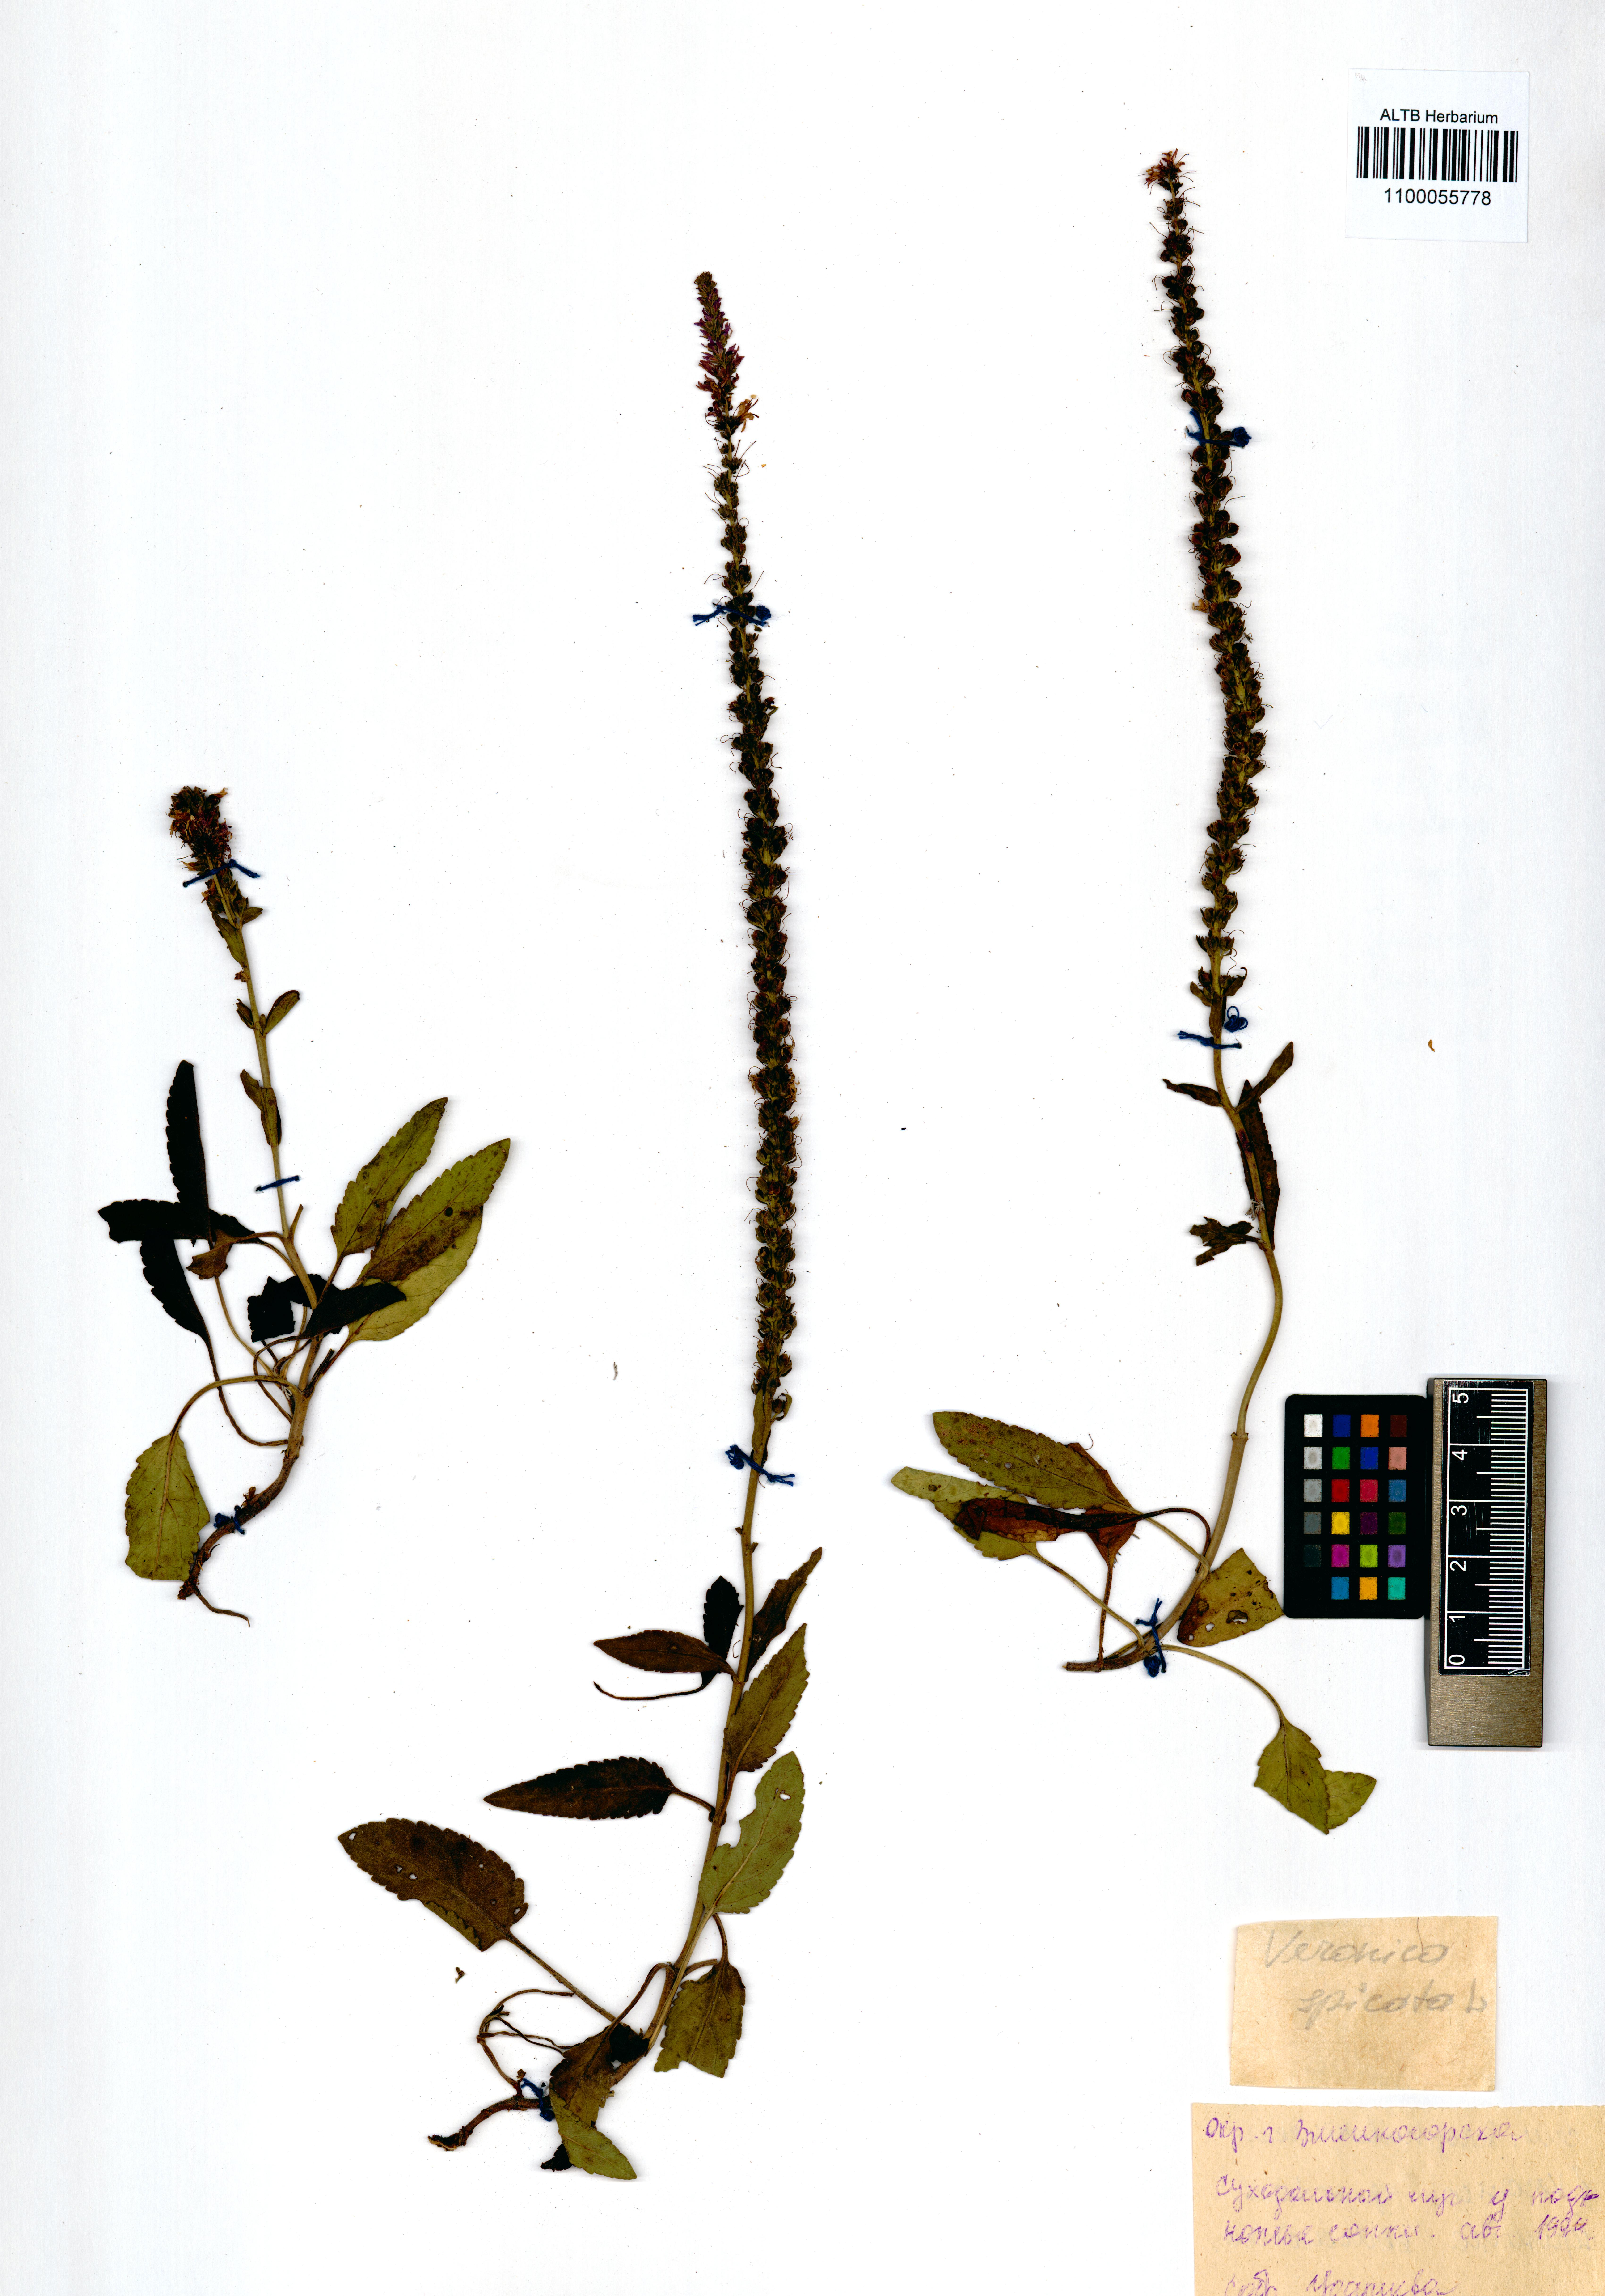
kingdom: Plantae
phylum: Tracheophyta
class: Magnoliopsida
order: Lamiales
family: Plantaginaceae
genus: Veronica
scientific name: Veronica spicata
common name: Spiked speedwell
